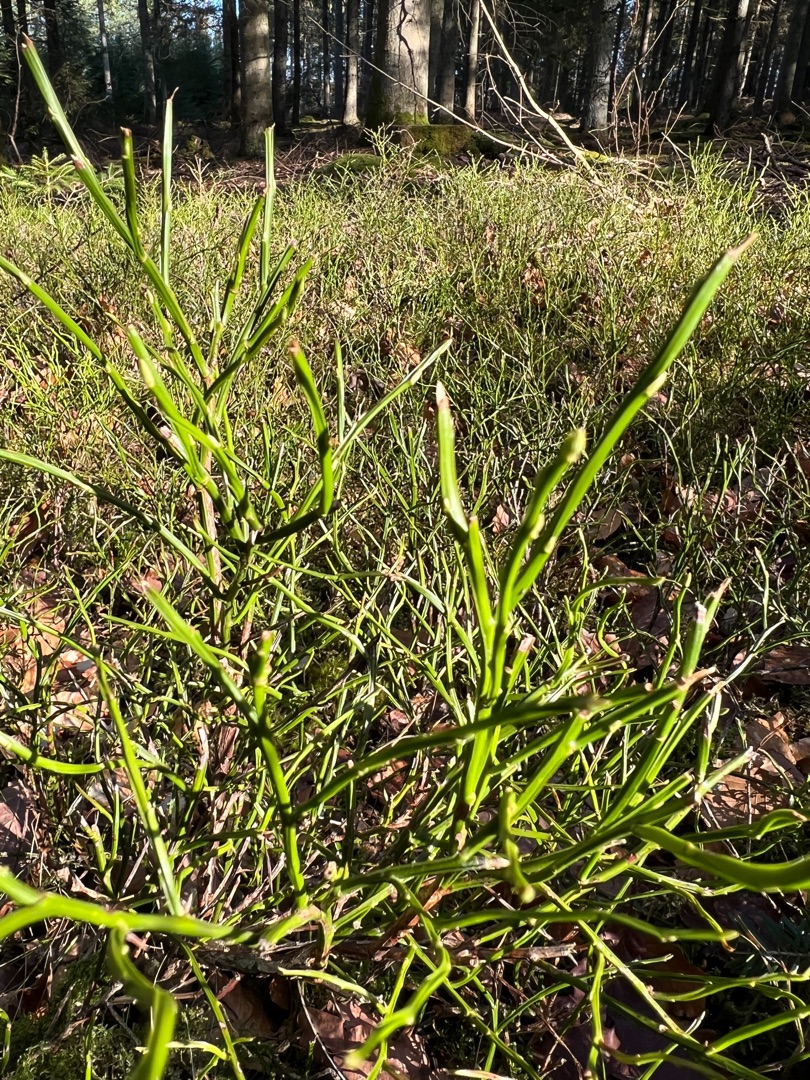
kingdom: Plantae
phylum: Tracheophyta
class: Magnoliopsida
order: Ericales
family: Ericaceae
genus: Vaccinium
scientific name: Vaccinium myrtillus
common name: Blåbær
